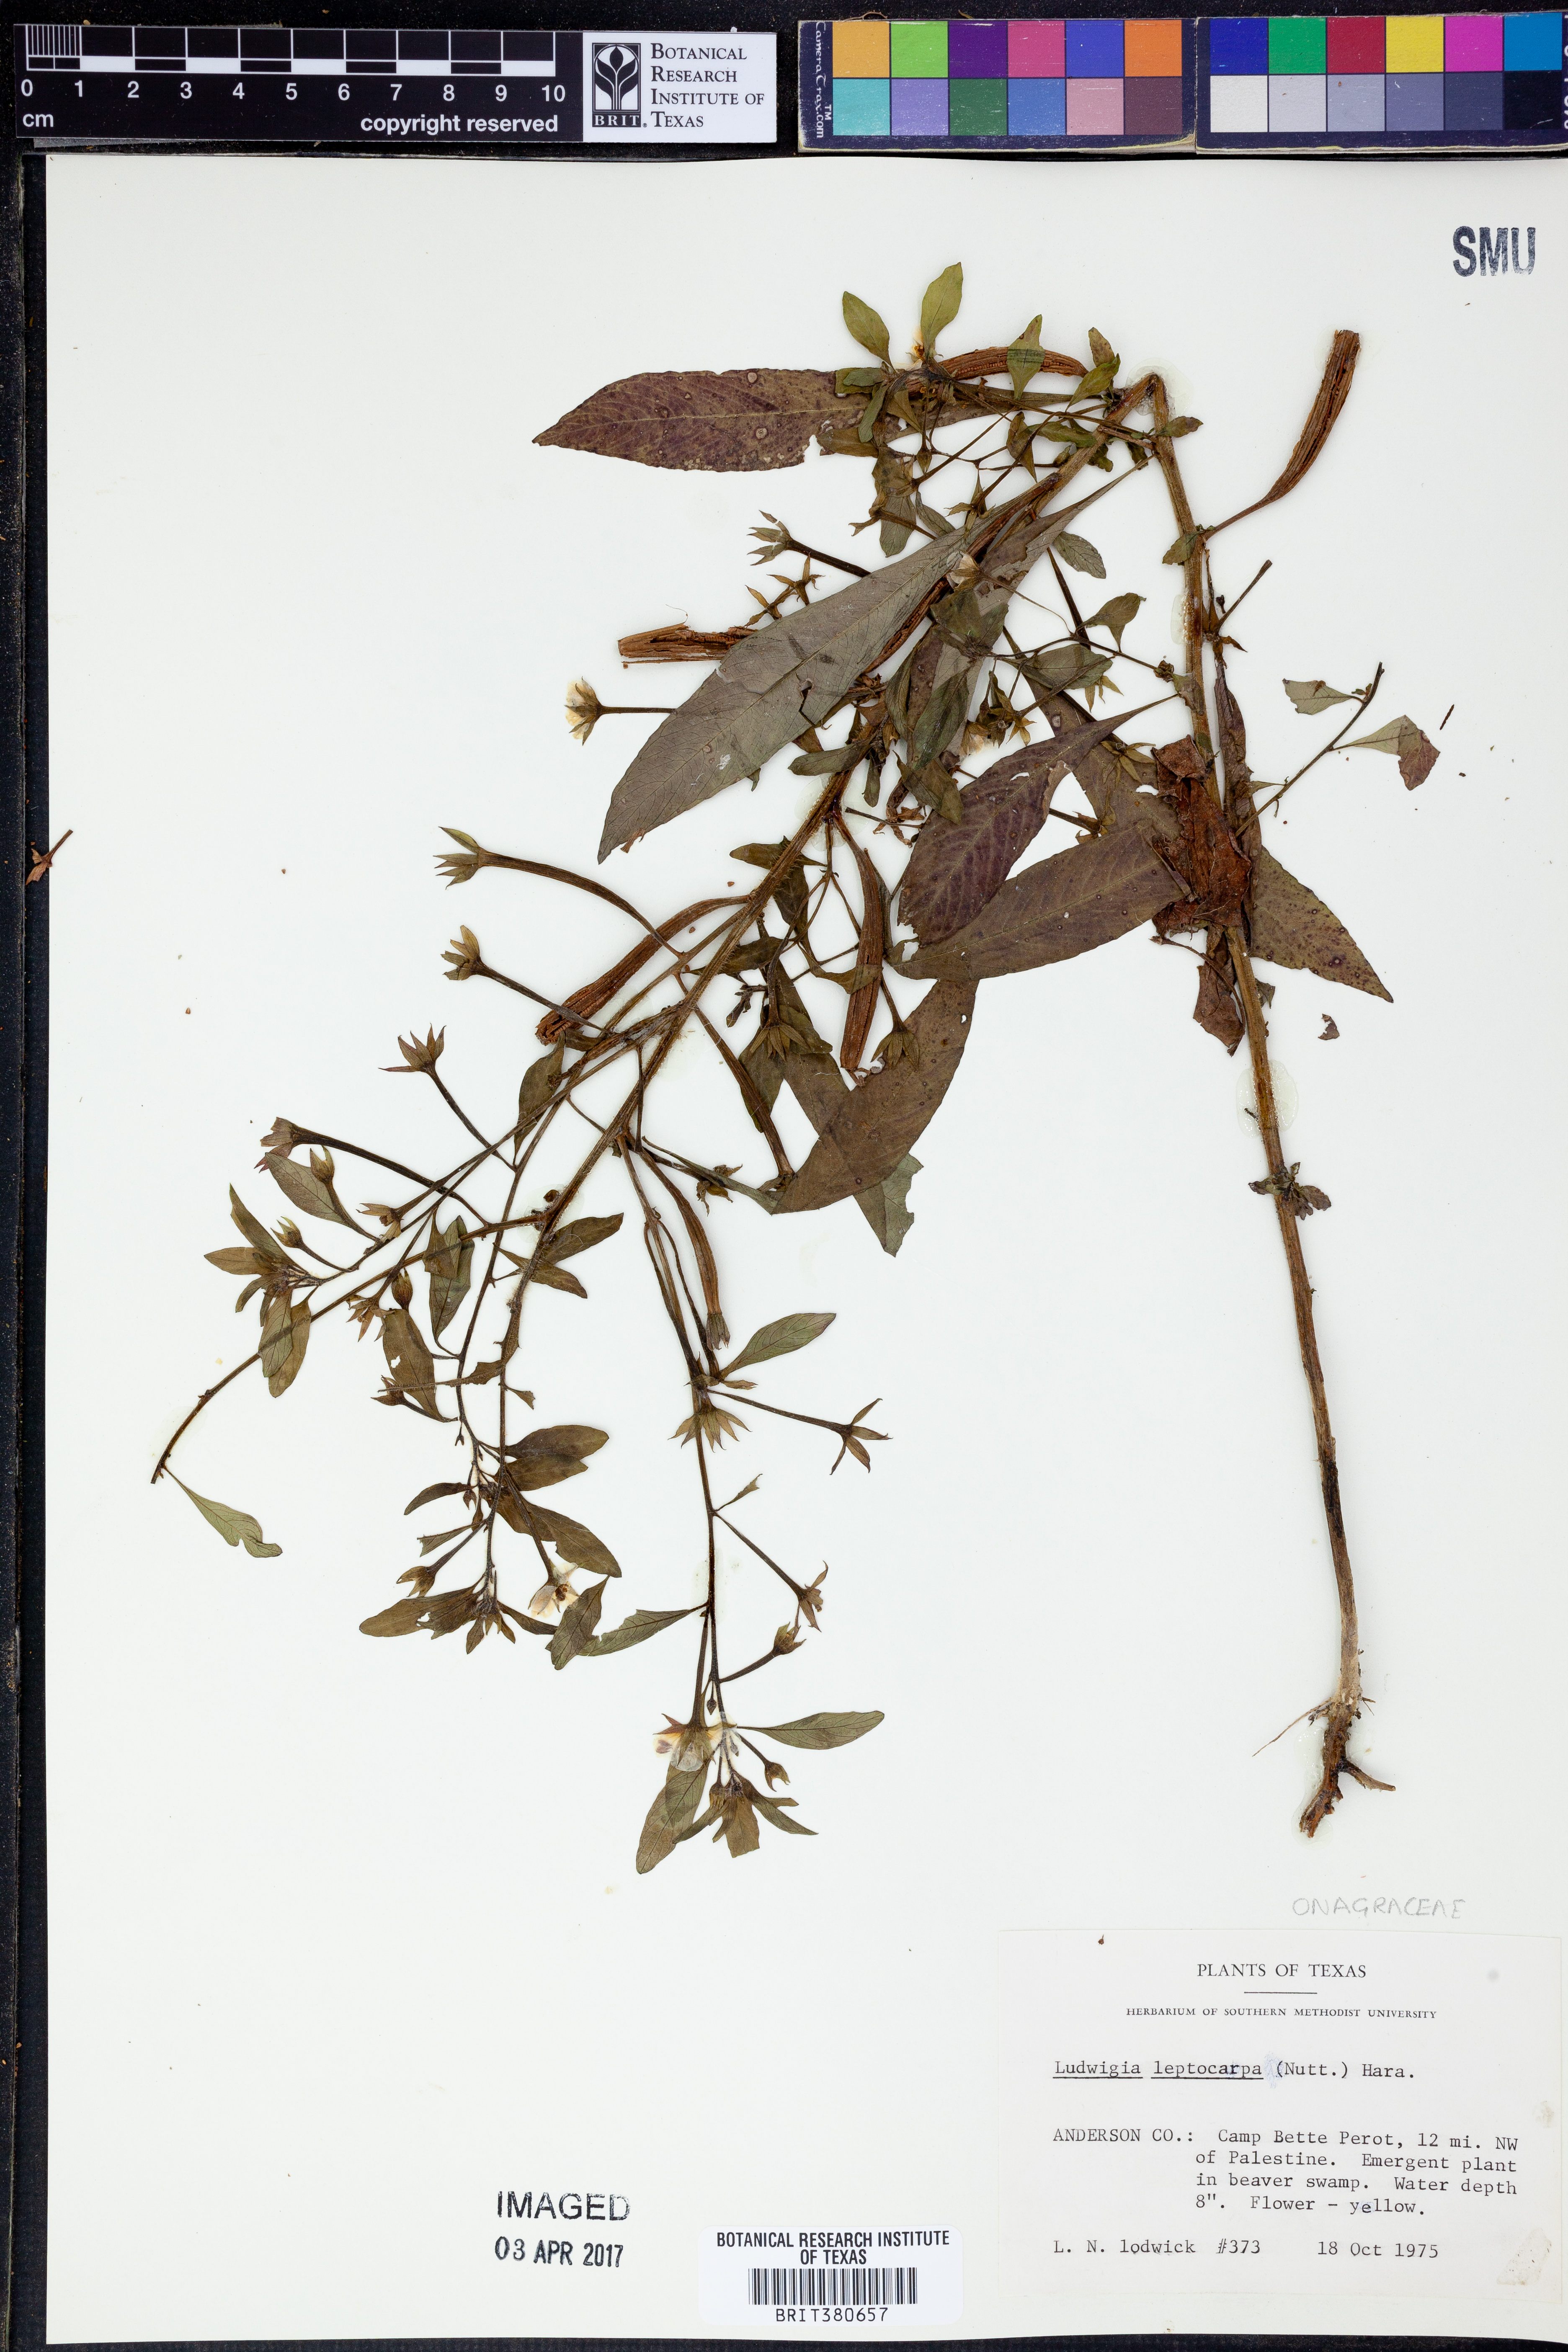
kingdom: Plantae
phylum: Tracheophyta
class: Magnoliopsida
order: Myrtales
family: Onagraceae
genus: Ludwigia
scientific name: Ludwigia leptocarpa
